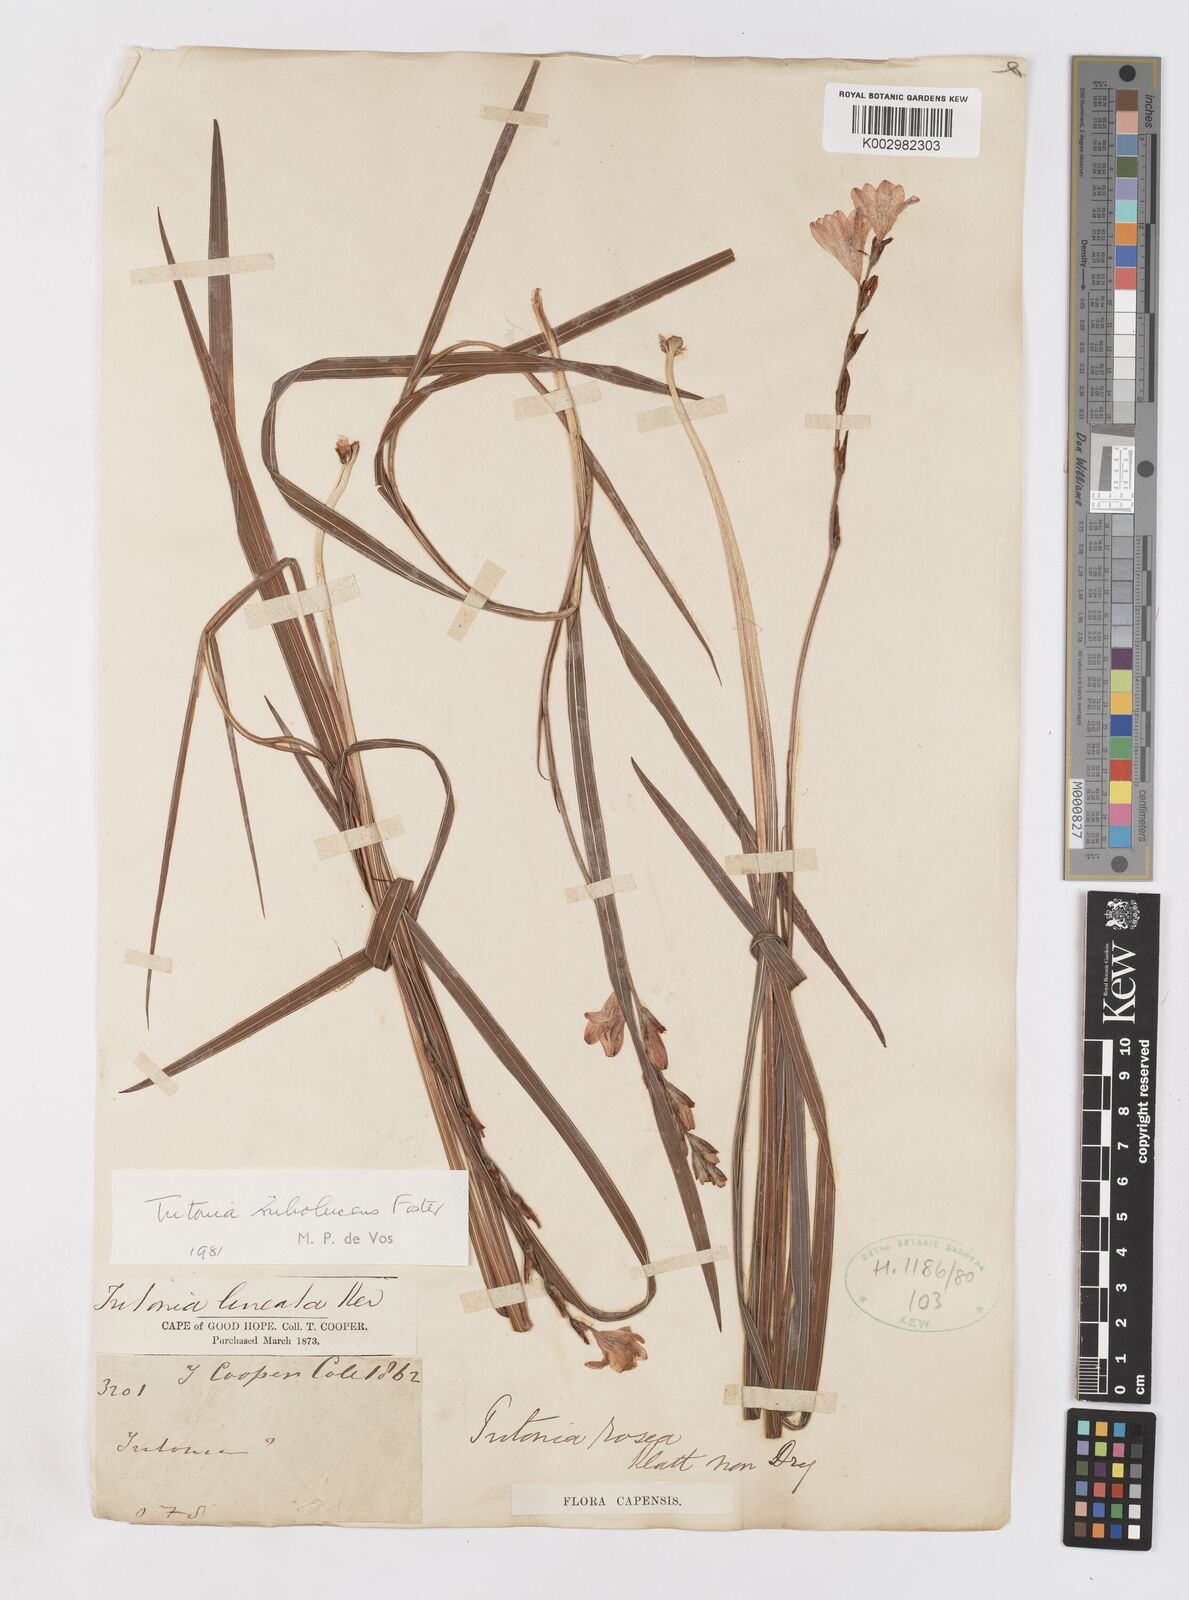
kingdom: Plantae
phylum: Tracheophyta
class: Liliopsida
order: Asparagales
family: Iridaceae
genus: Tritonia
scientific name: Tritonia disticha
